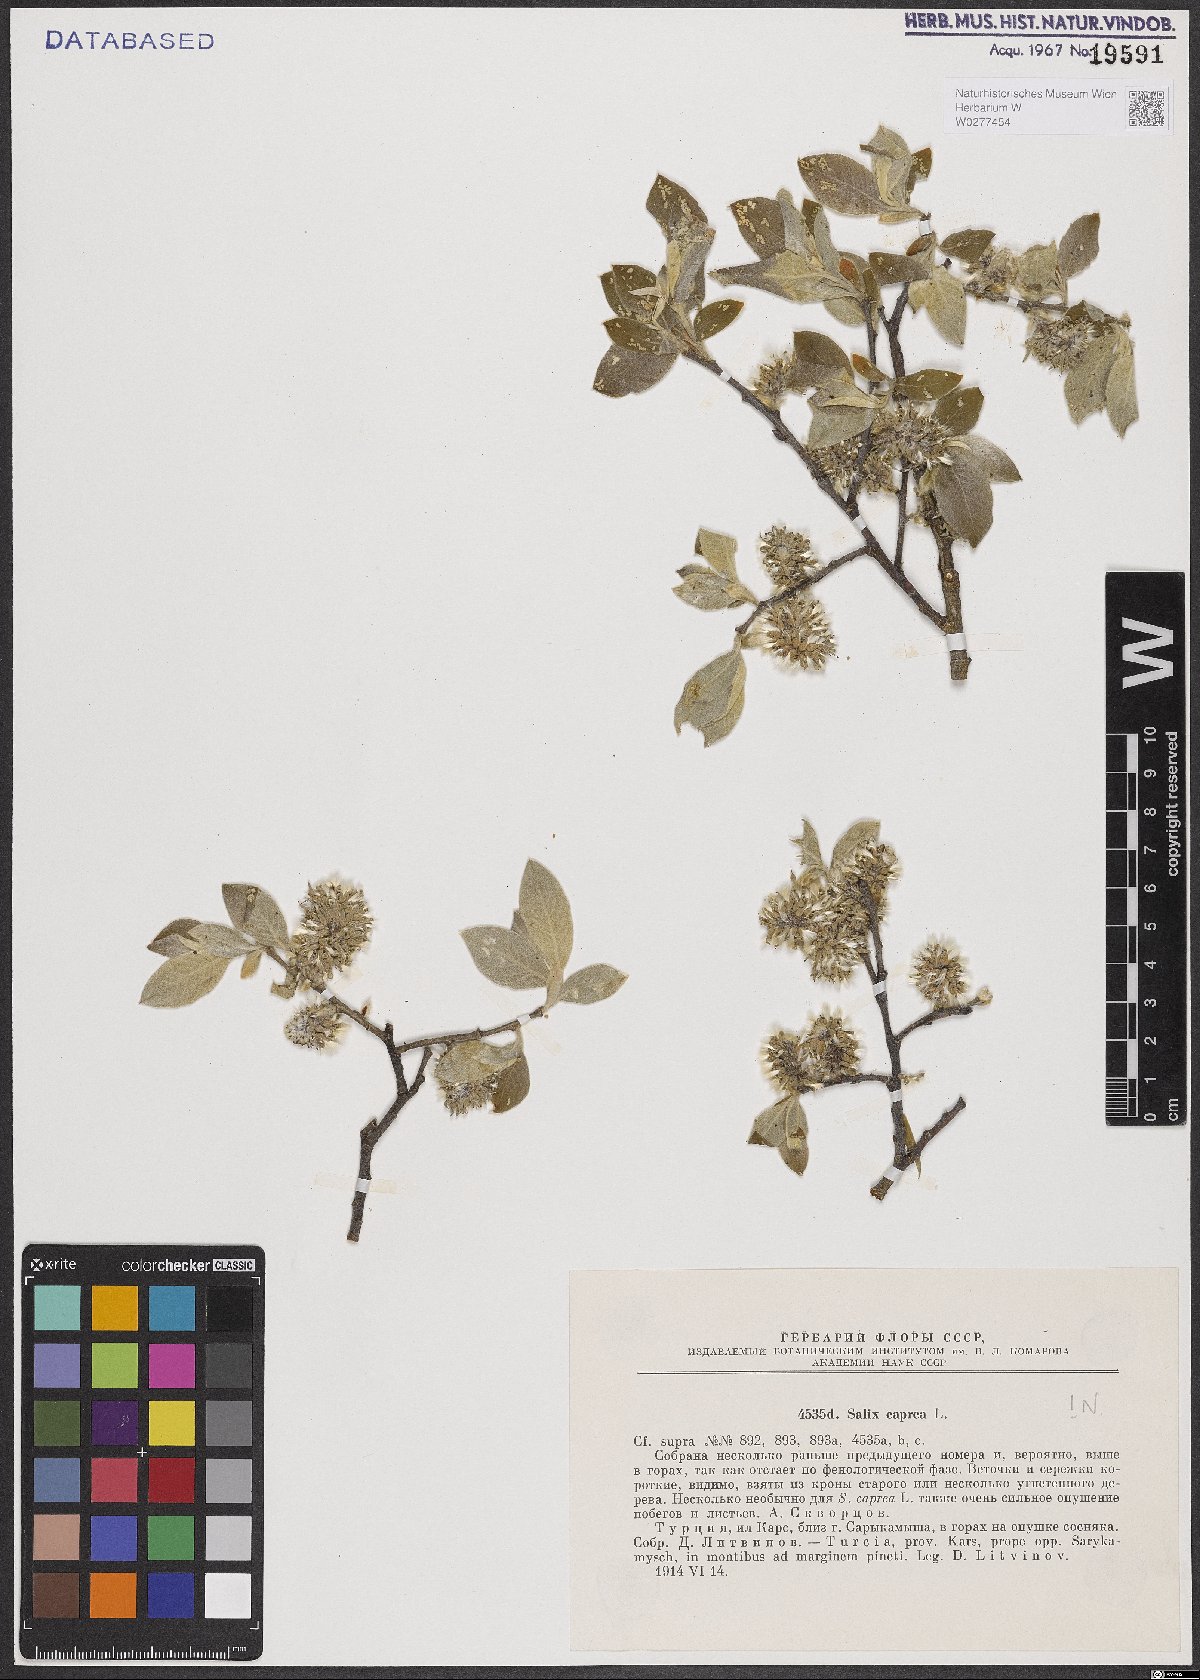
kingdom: Plantae
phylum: Tracheophyta
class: Magnoliopsida
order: Malpighiales
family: Salicaceae
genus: Salix
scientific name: Salix caprea
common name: Goat willow
